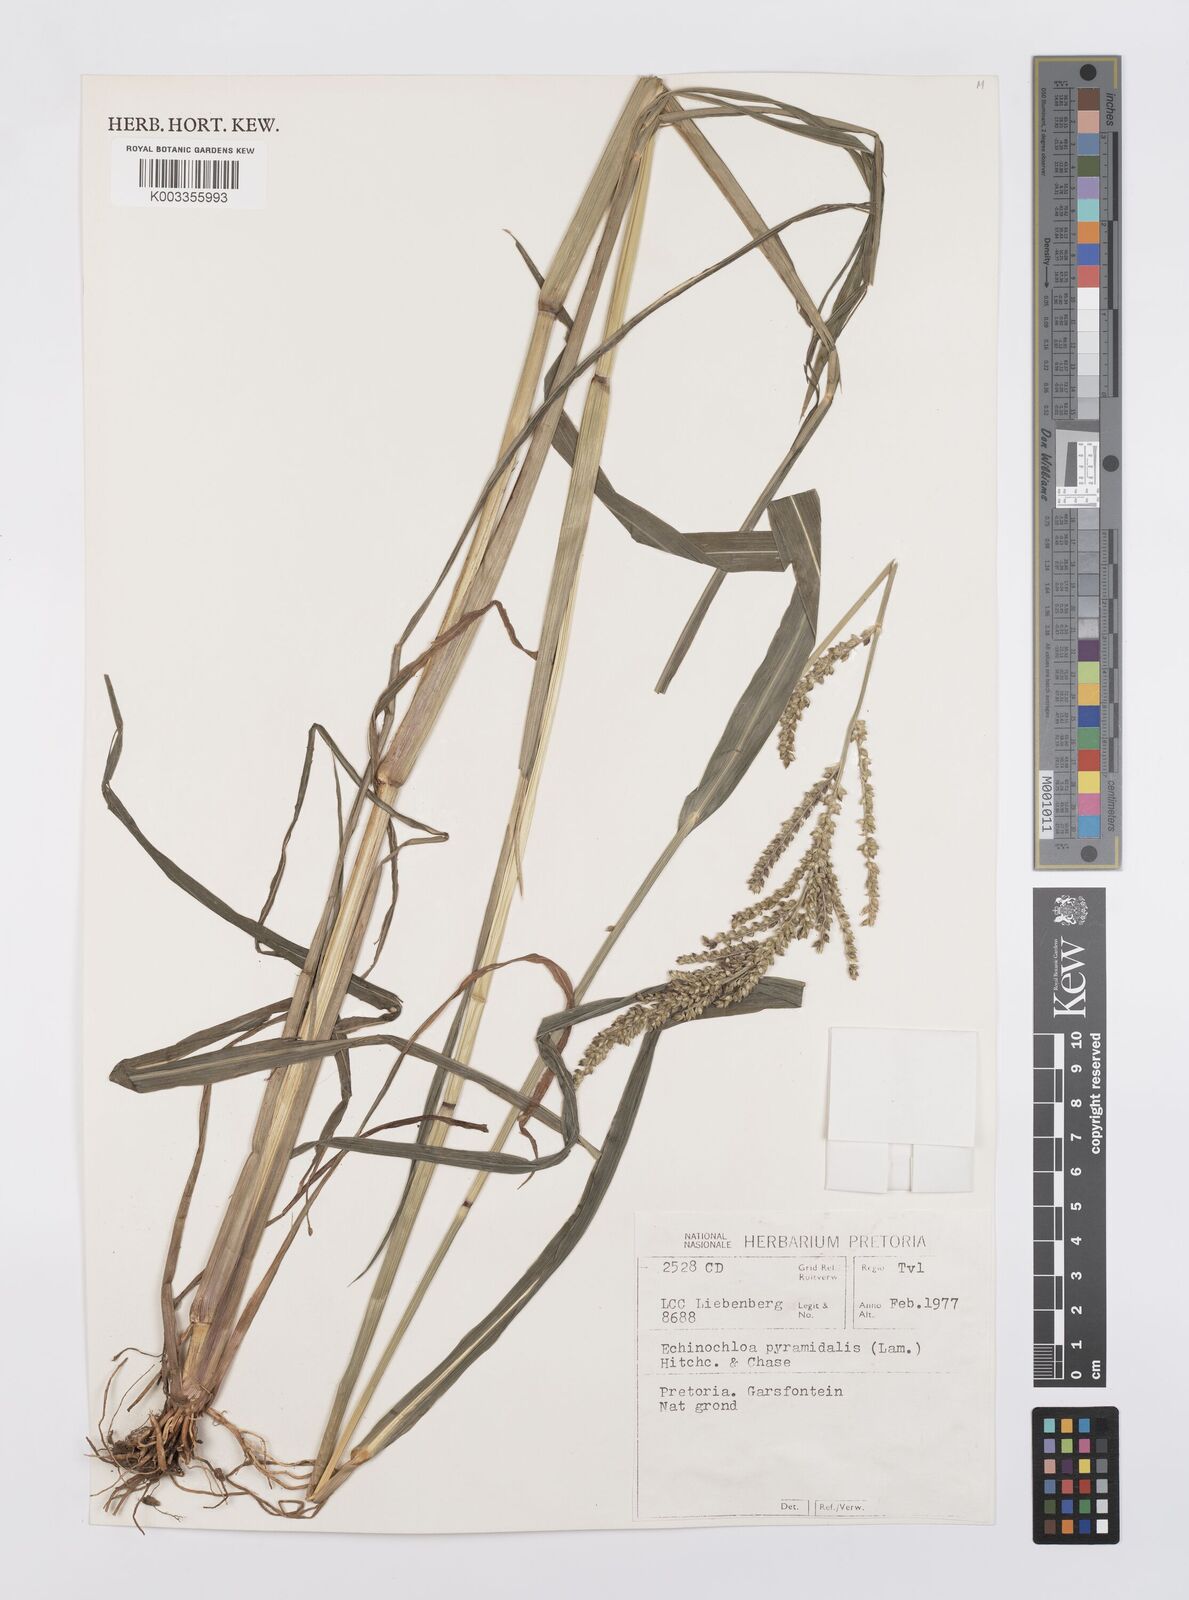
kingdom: Plantae
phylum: Tracheophyta
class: Liliopsida
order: Poales
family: Poaceae
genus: Echinochloa
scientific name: Echinochloa crus-galli
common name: Cockspur
